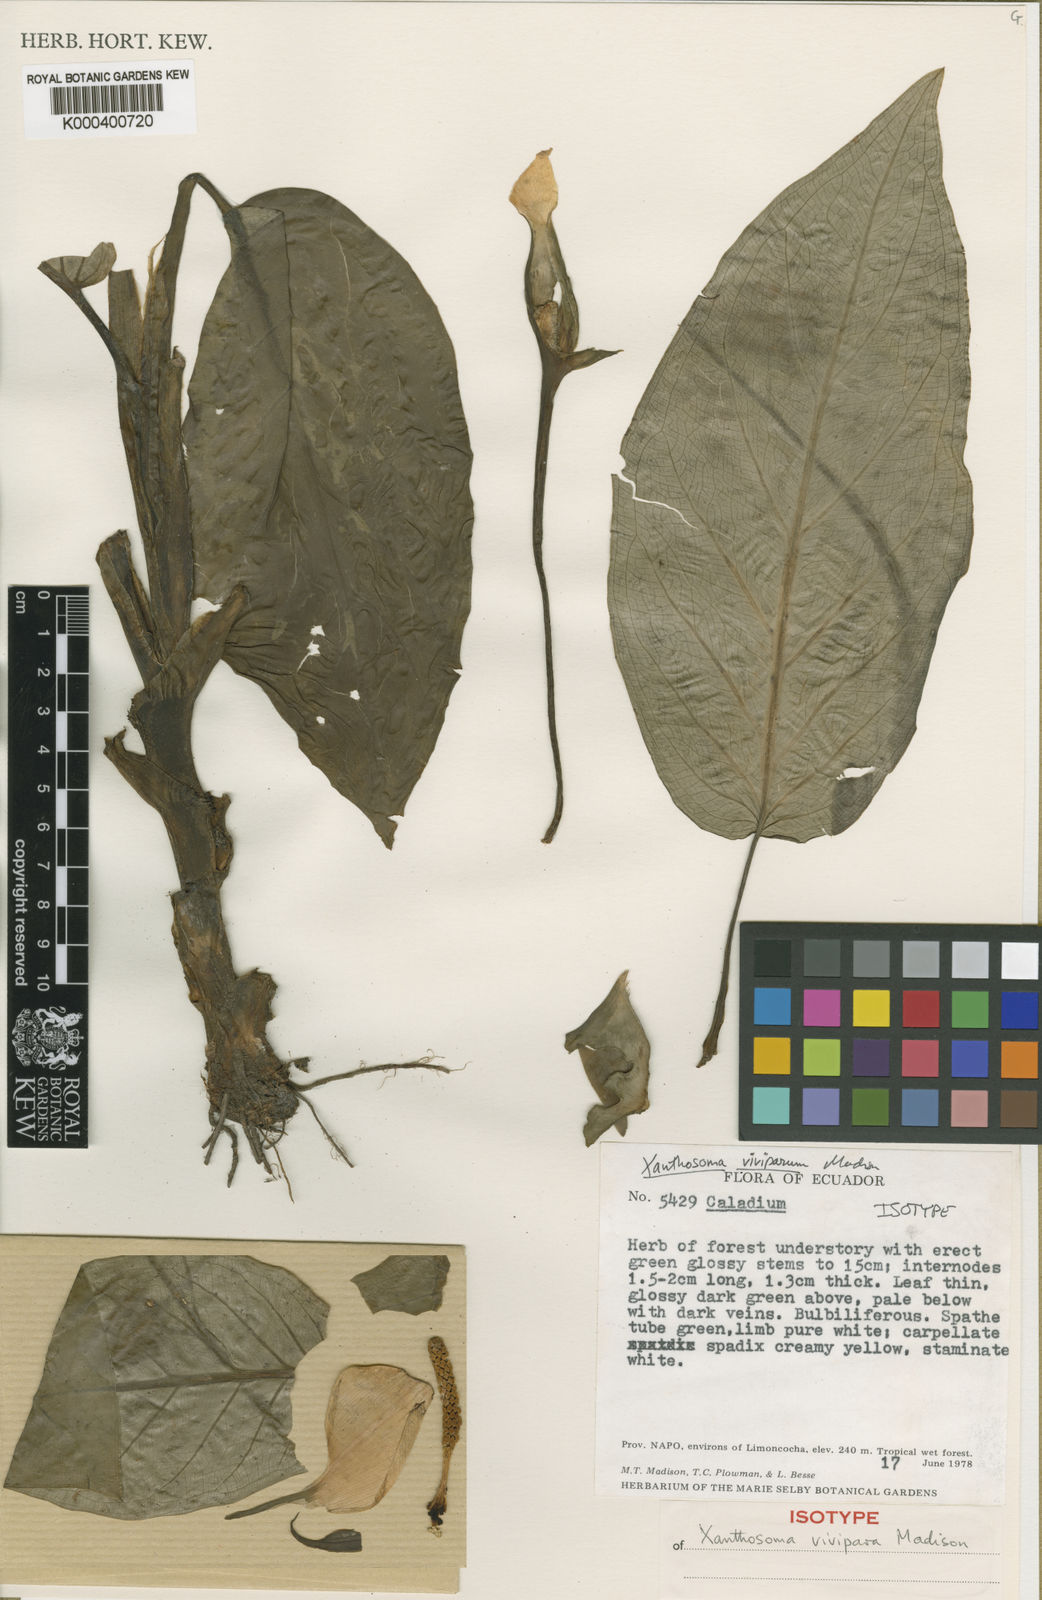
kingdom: Plantae
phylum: Tracheophyta
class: Liliopsida
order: Alismatales
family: Araceae
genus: Xanthosoma
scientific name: Xanthosoma viviparum
